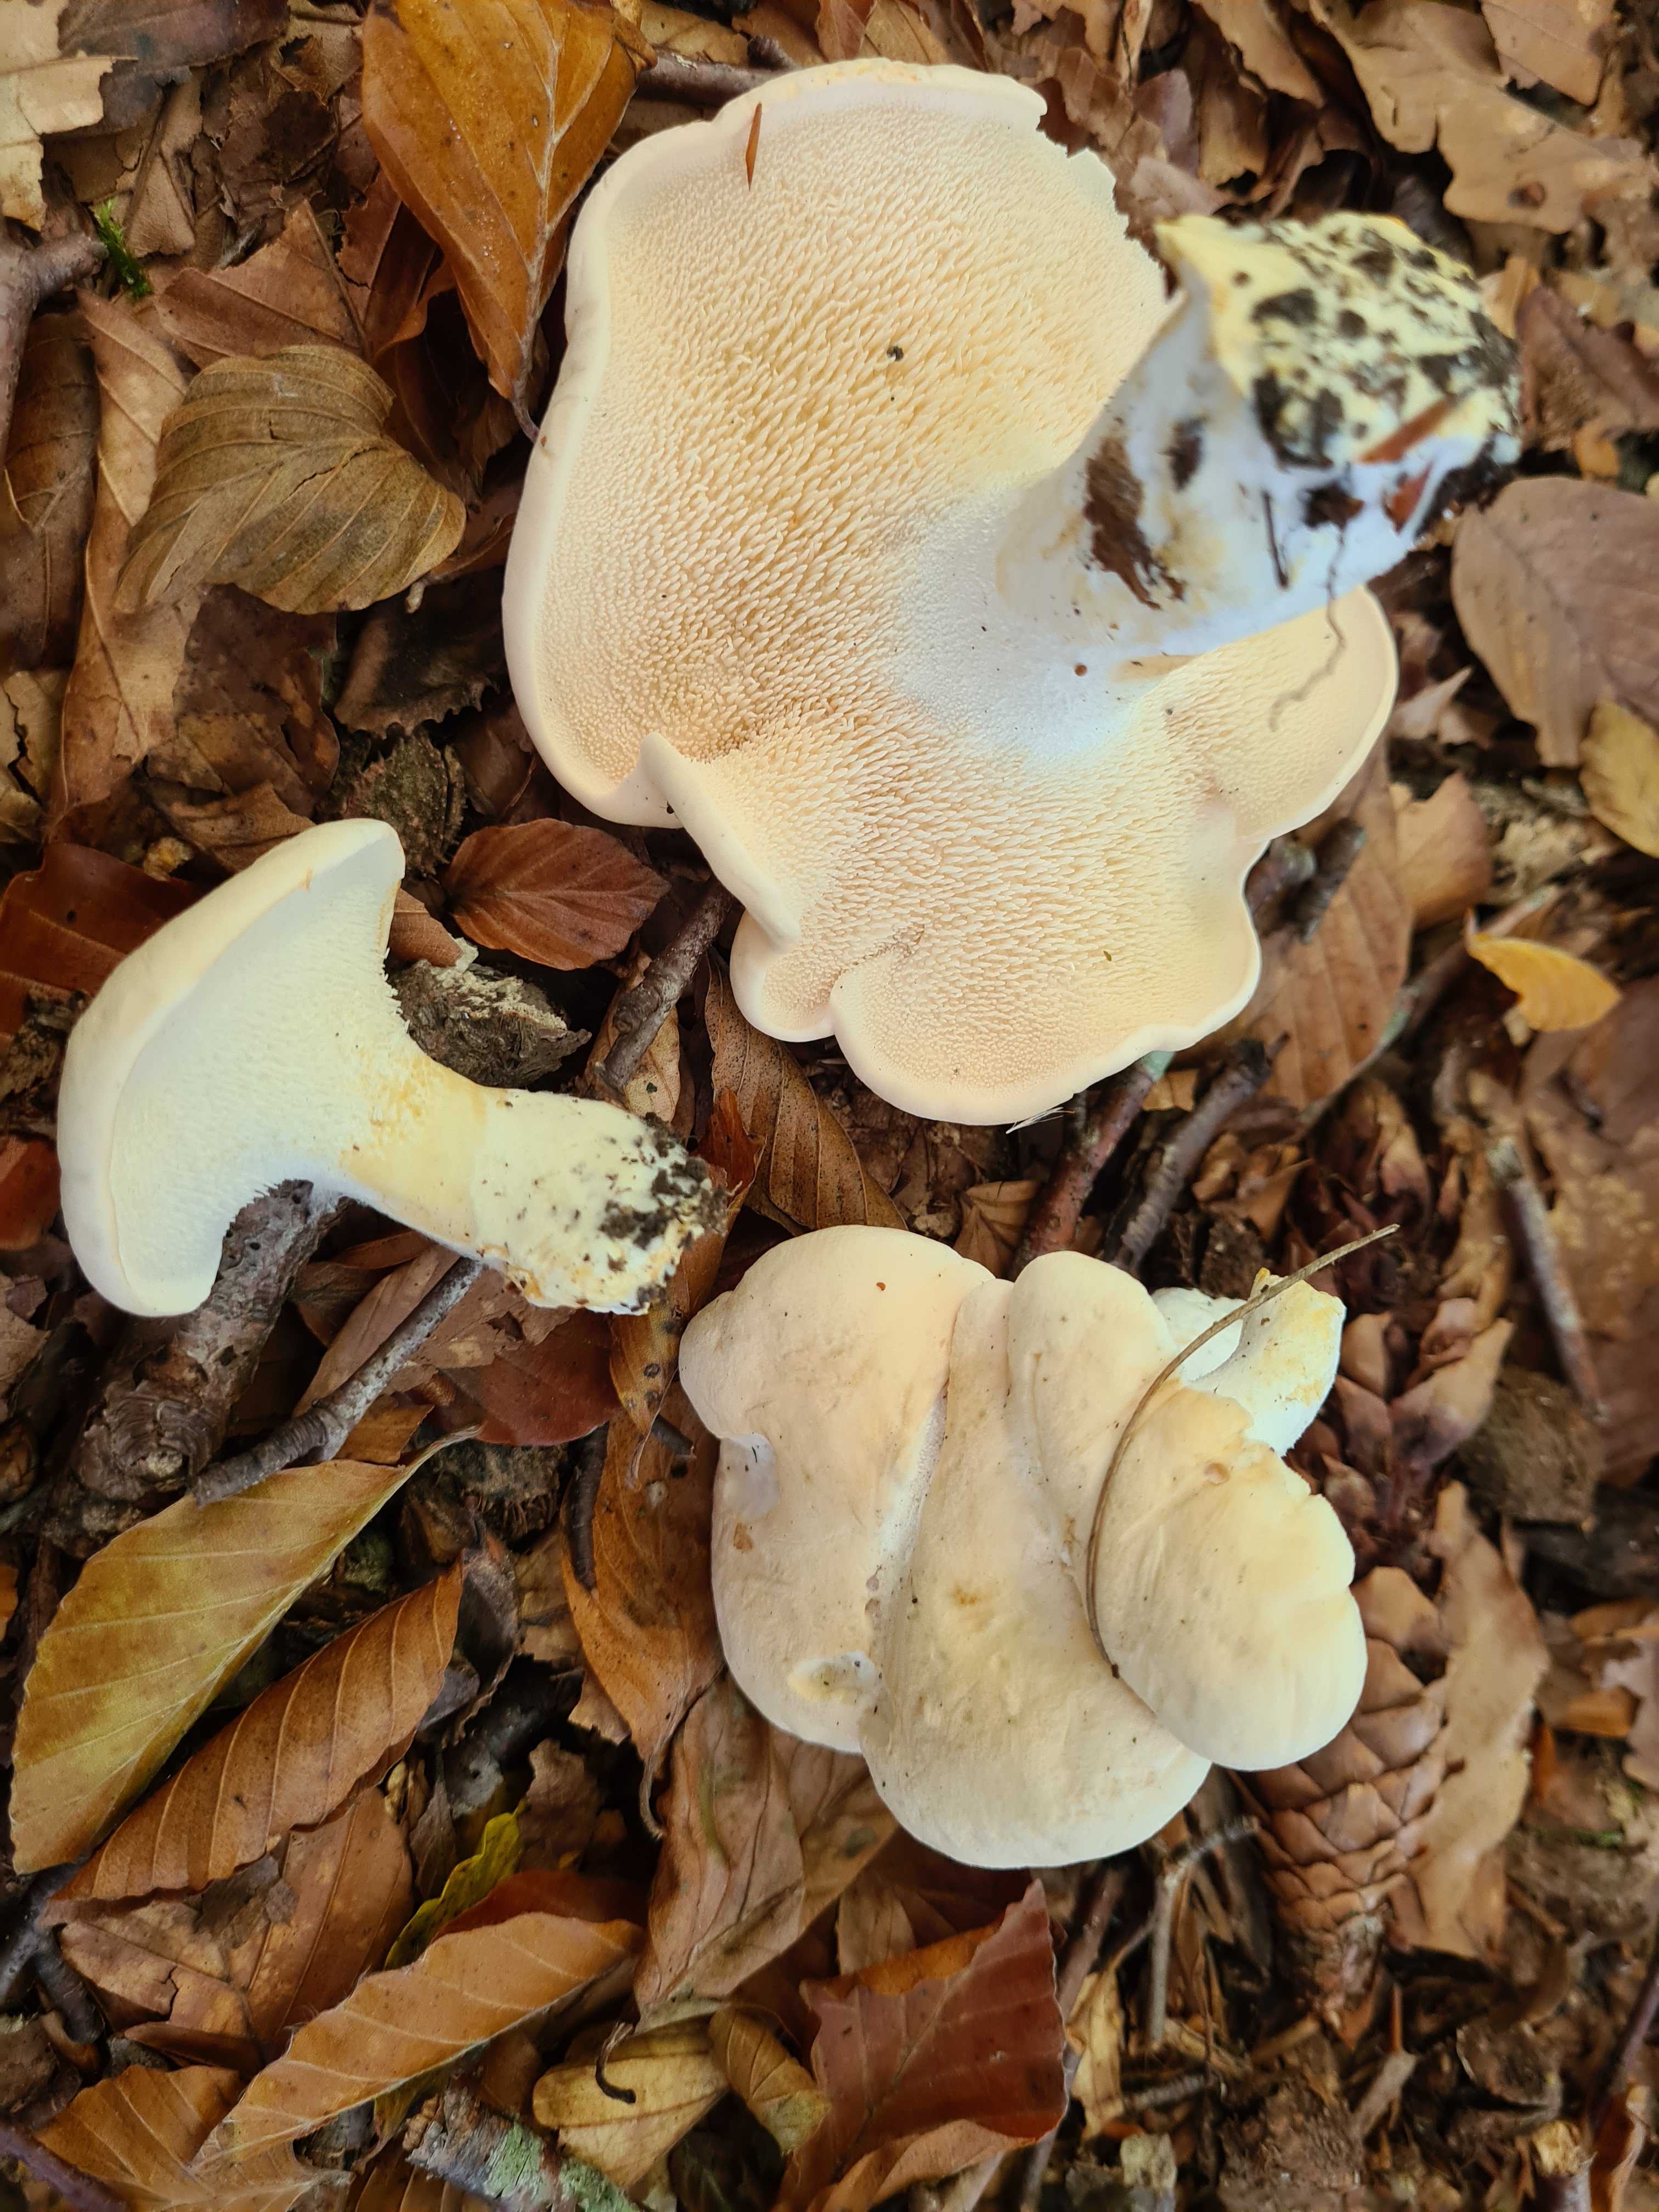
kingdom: Fungi
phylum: Basidiomycota
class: Agaricomycetes
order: Cantharellales
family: Hydnaceae
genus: Hydnum
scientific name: Hydnum
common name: pigsvamp
